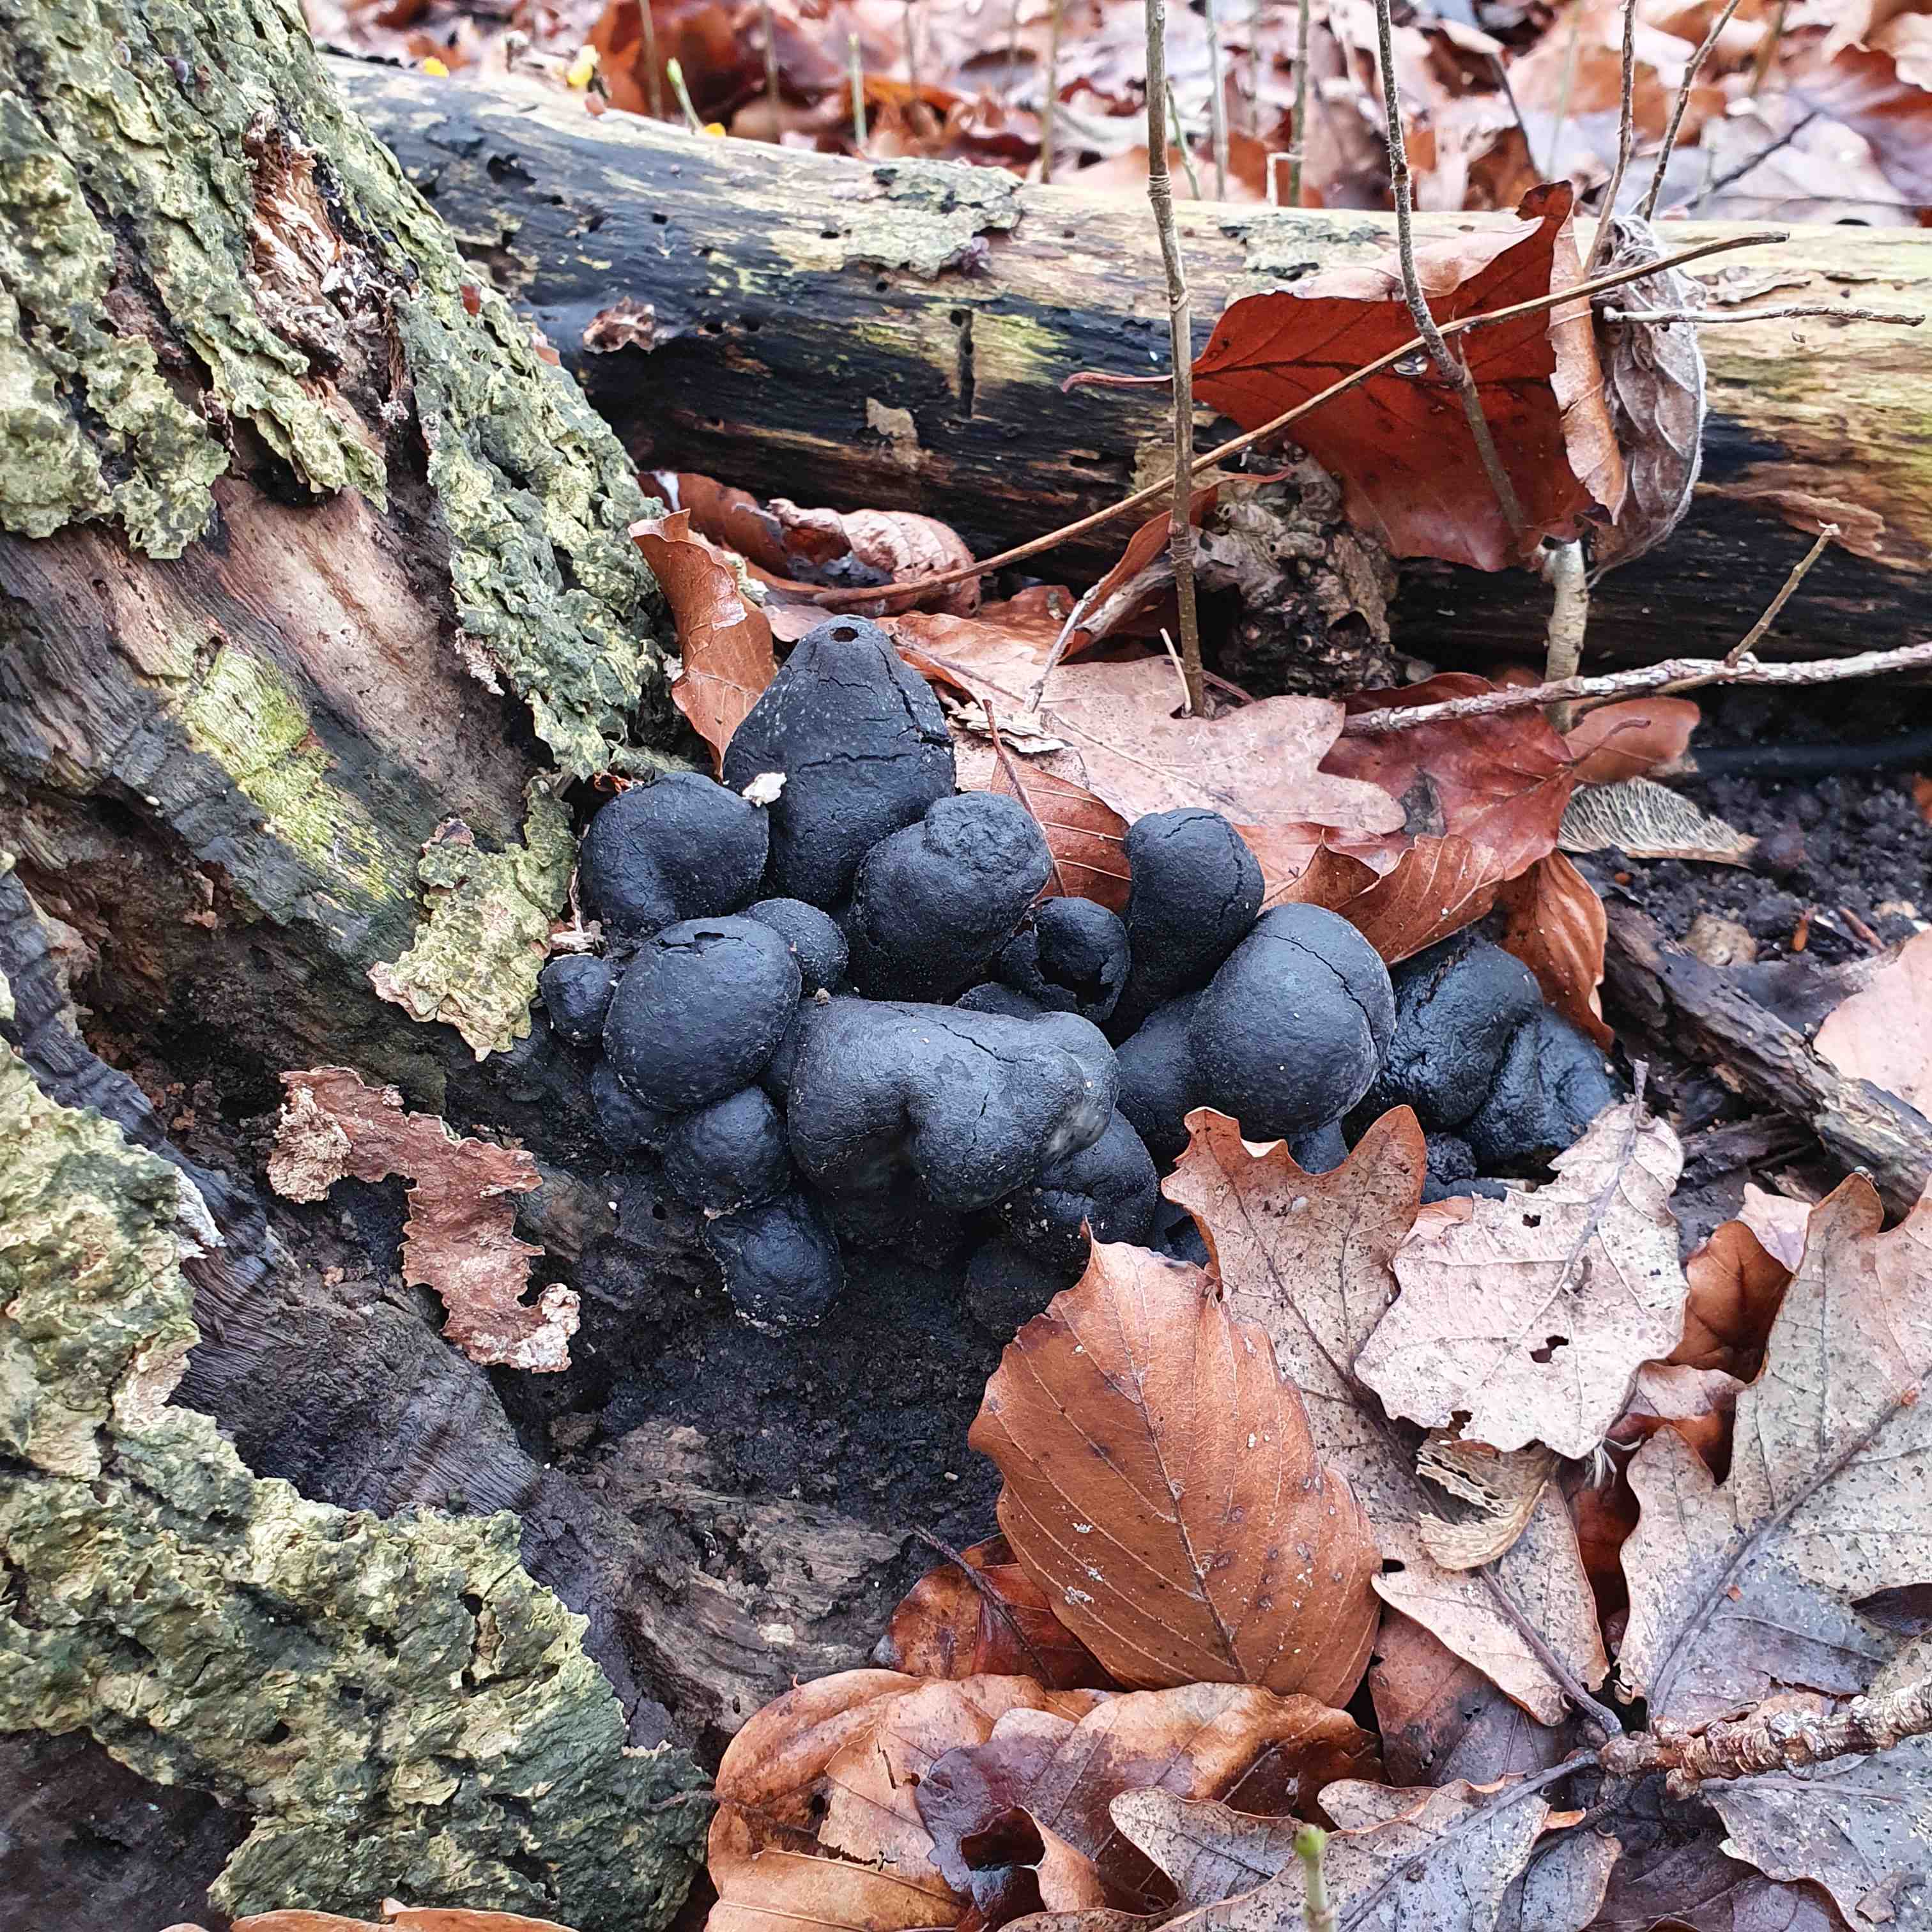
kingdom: Fungi
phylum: Ascomycota
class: Sordariomycetes
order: Xylariales
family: Xylariaceae
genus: Xylaria
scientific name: Xylaria polymorpha
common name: kølle-stødsvamp
